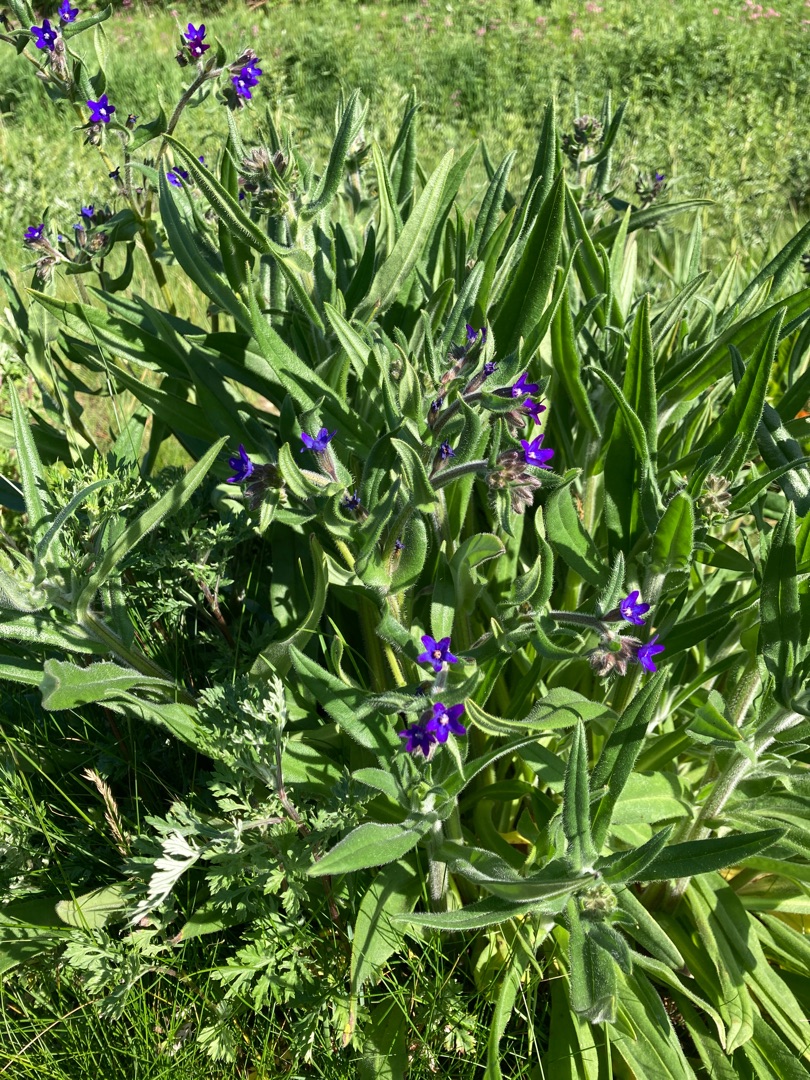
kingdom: Plantae
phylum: Tracheophyta
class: Magnoliopsida
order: Boraginales
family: Boraginaceae
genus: Anchusa
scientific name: Anchusa officinalis
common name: Læge-oksetunge
